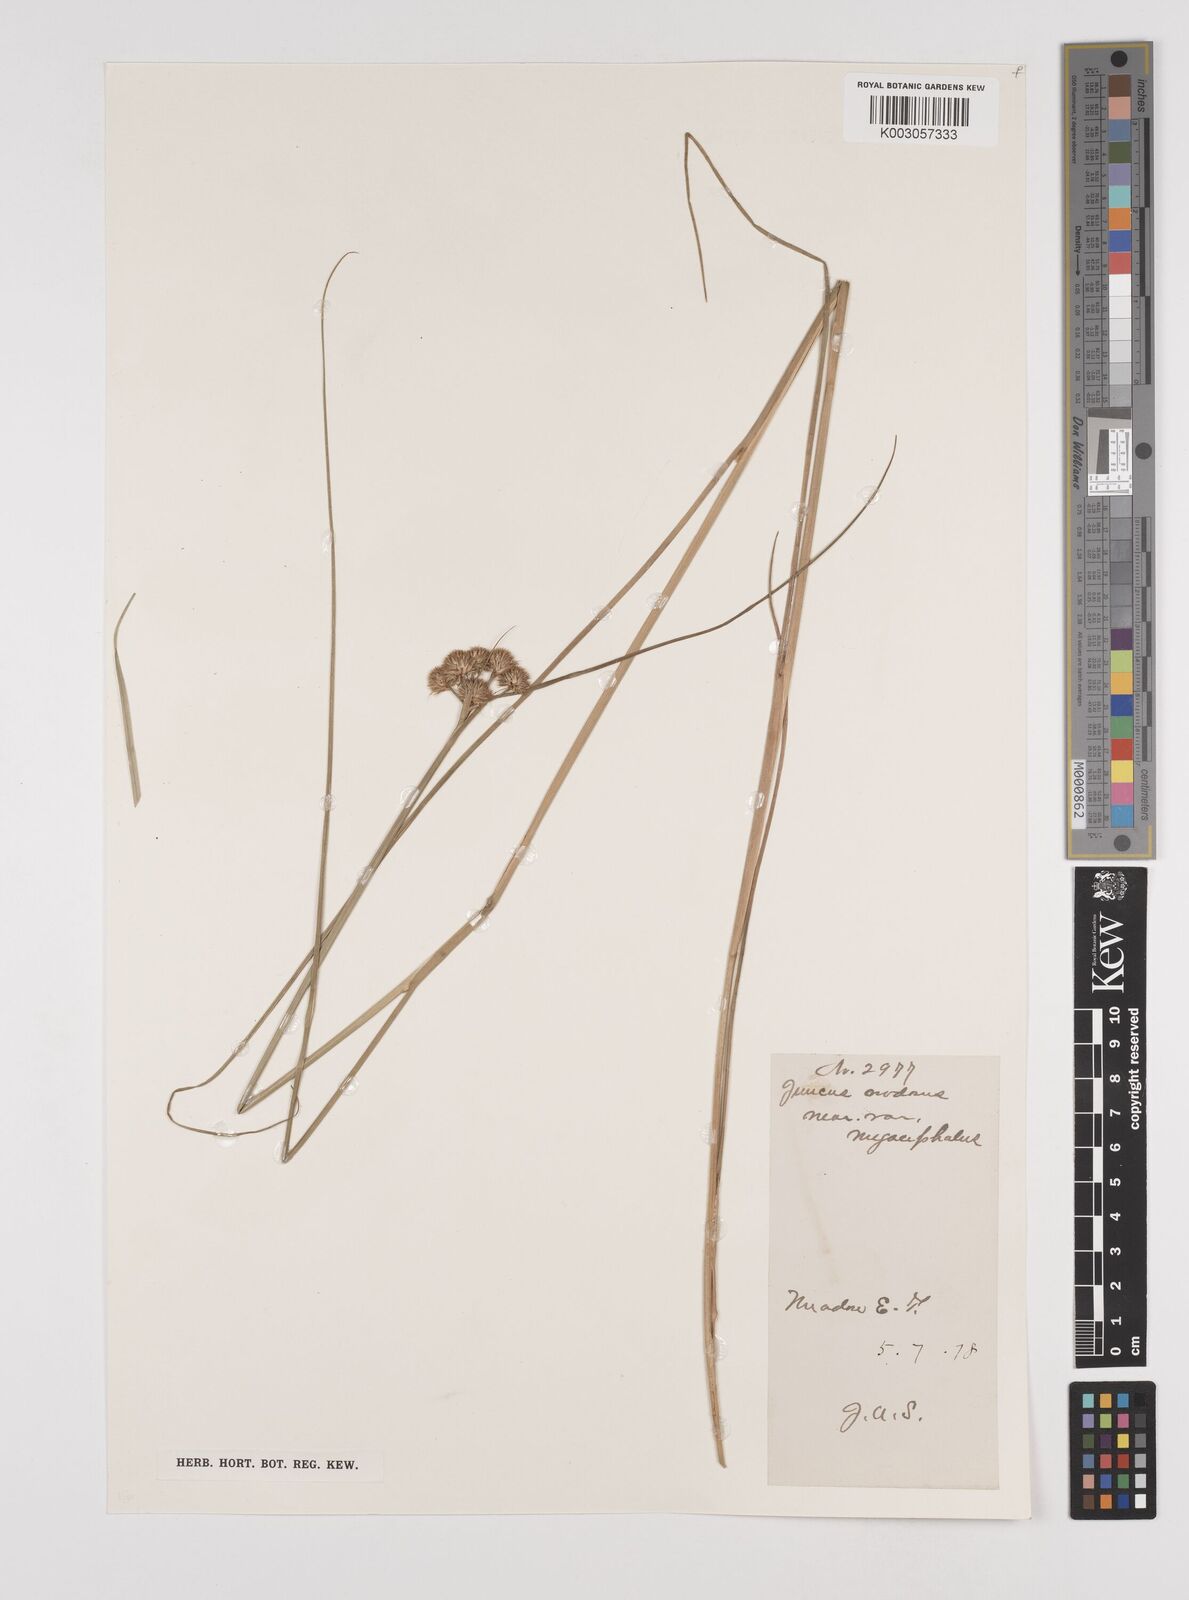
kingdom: Plantae
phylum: Tracheophyta
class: Liliopsida
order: Poales
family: Juncaceae
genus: Juncus
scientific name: Juncus nodosus
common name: Knotted rush
